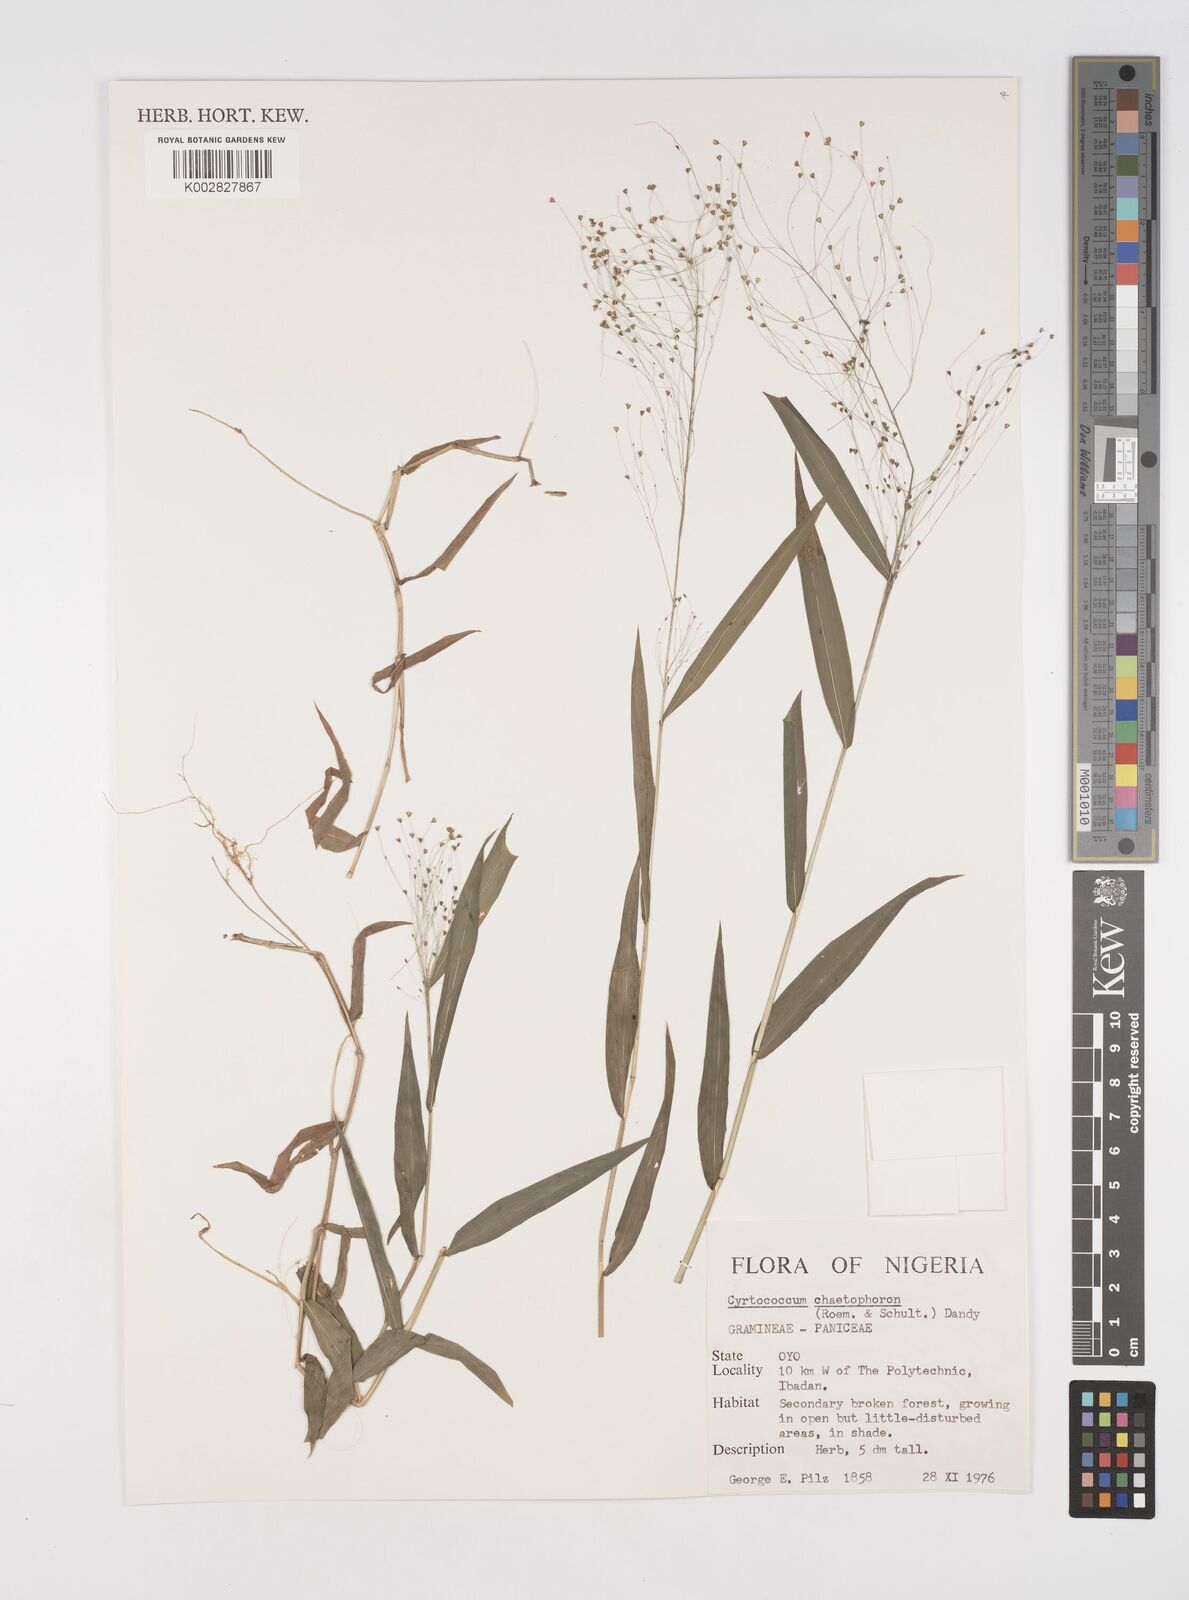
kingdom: Plantae
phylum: Tracheophyta
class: Liliopsida
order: Poales
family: Poaceae
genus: Cyrtococcum
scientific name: Cyrtococcum chaetophoron
